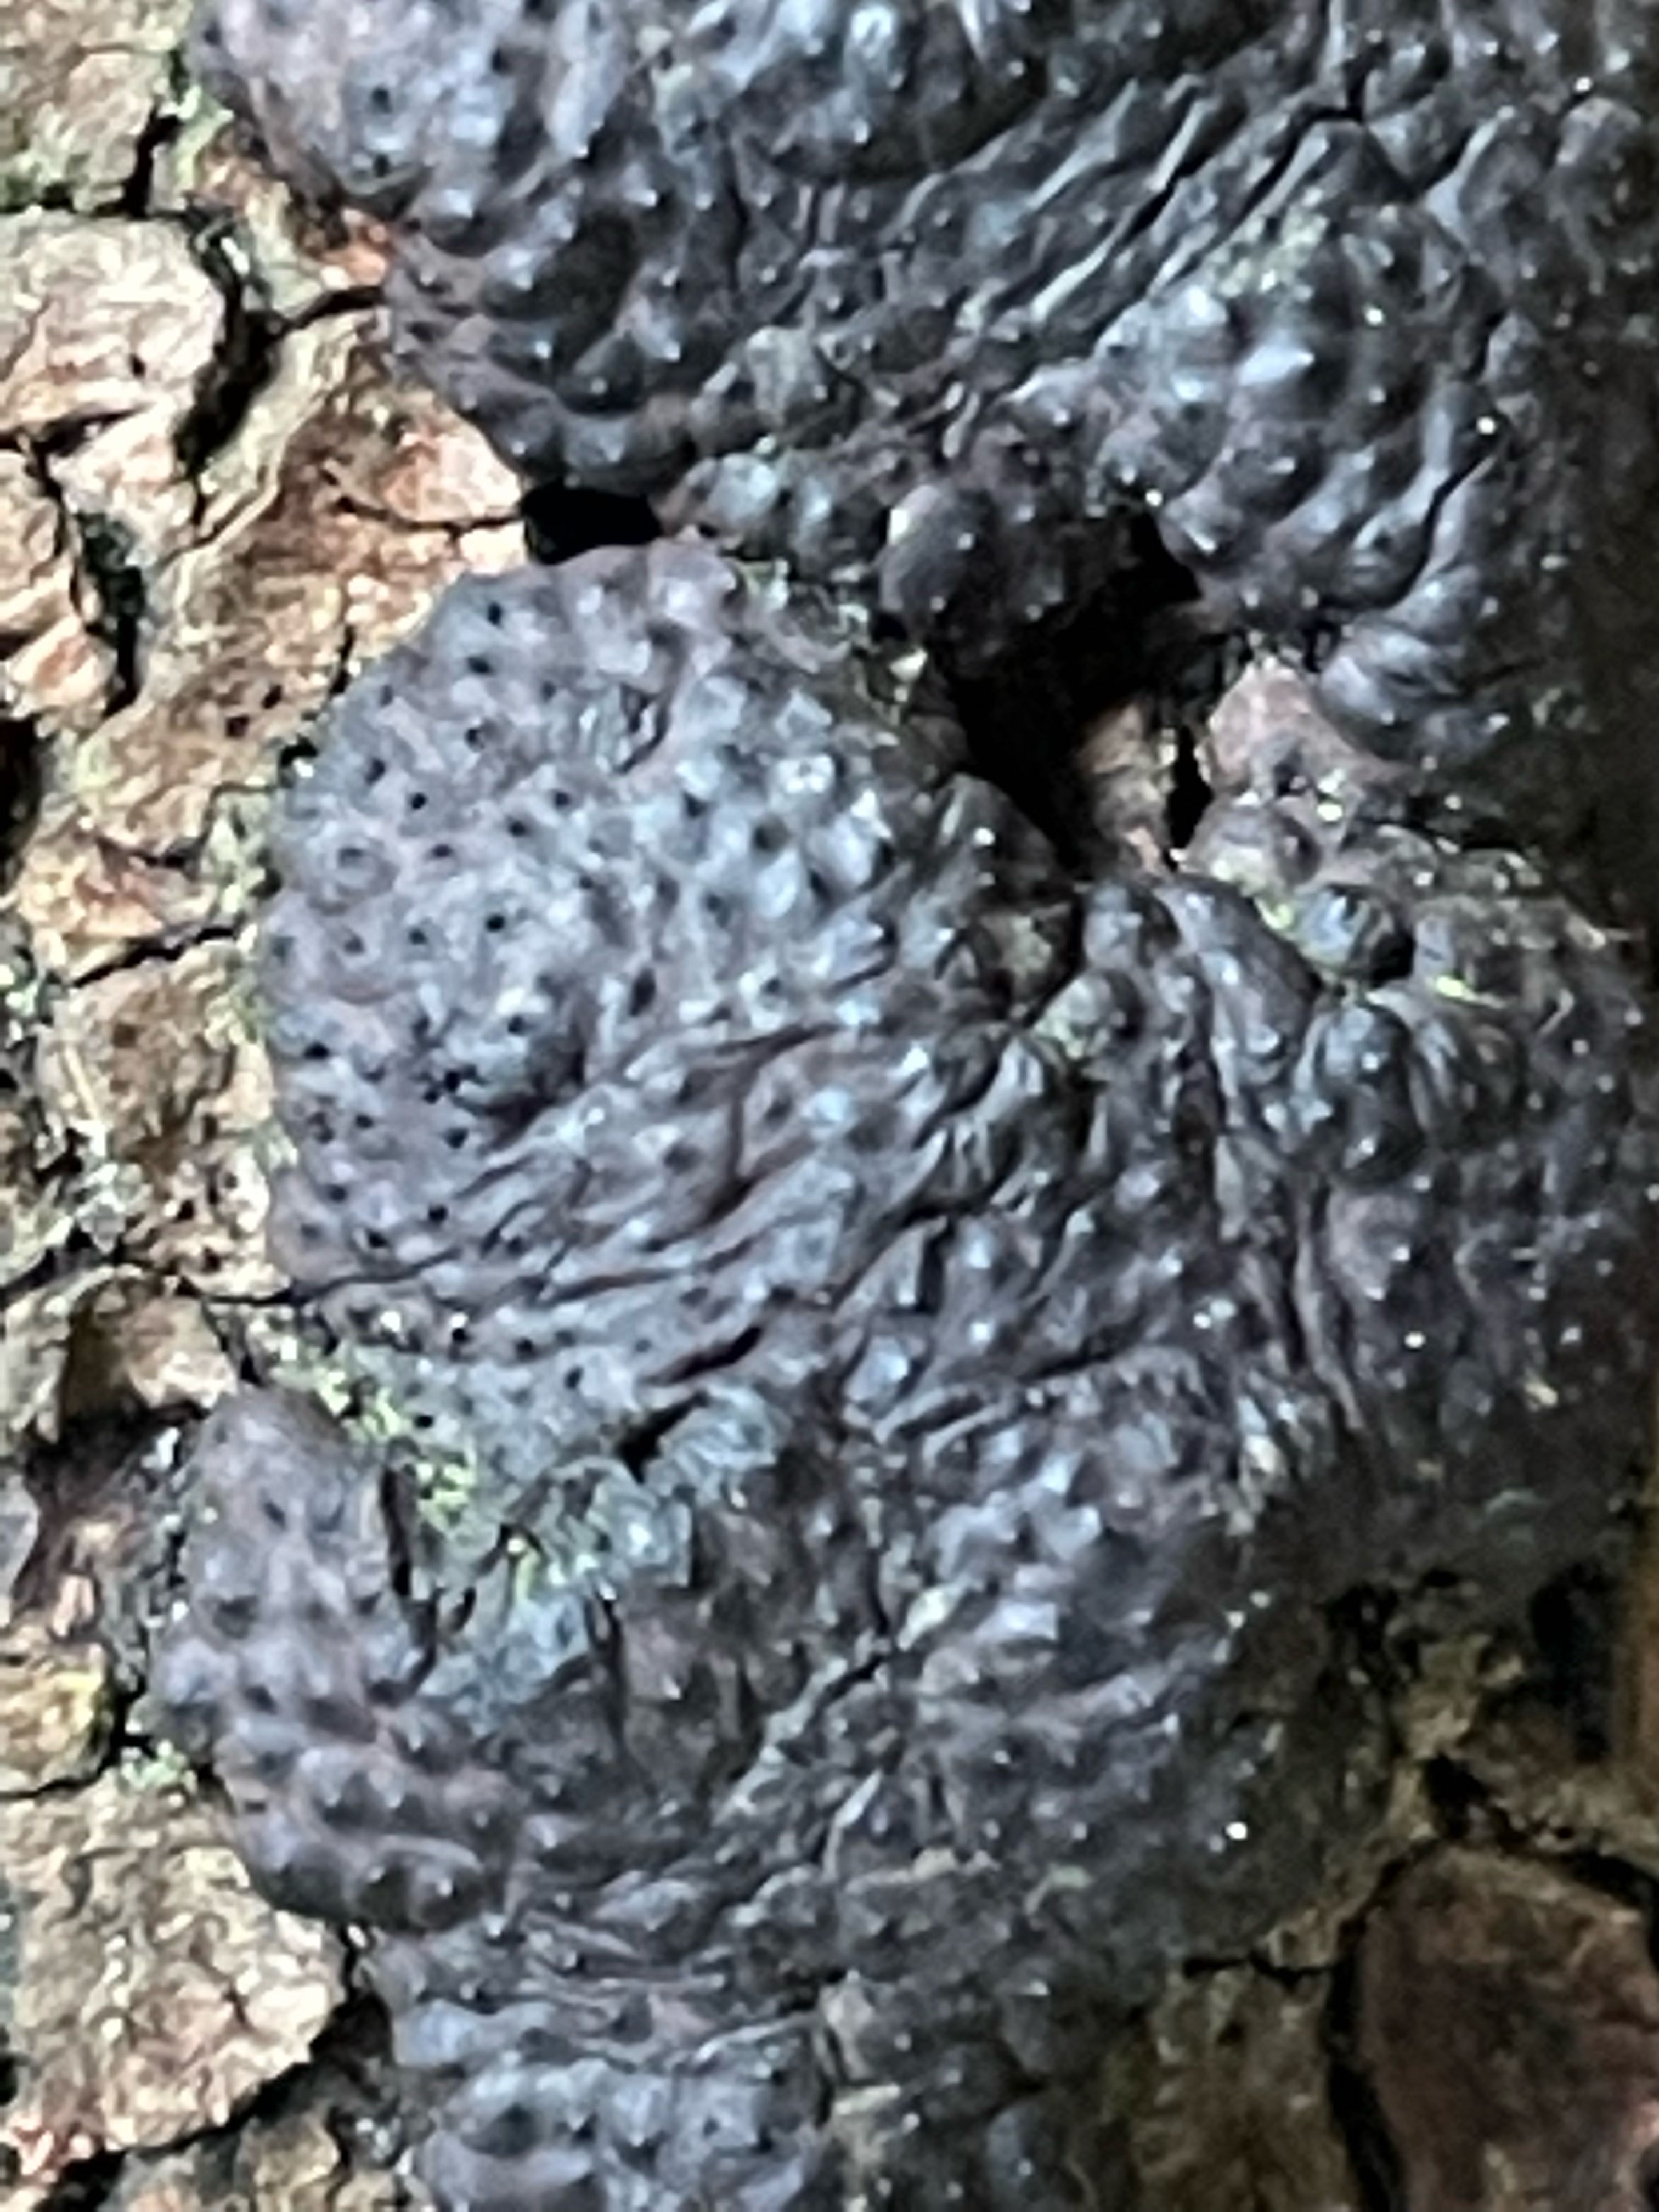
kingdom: Fungi
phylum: Ascomycota
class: Sordariomycetes
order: Xylariales
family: Hypoxylaceae
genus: Jackrogersella
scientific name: Jackrogersella multiformis
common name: foranderlig kulbær
